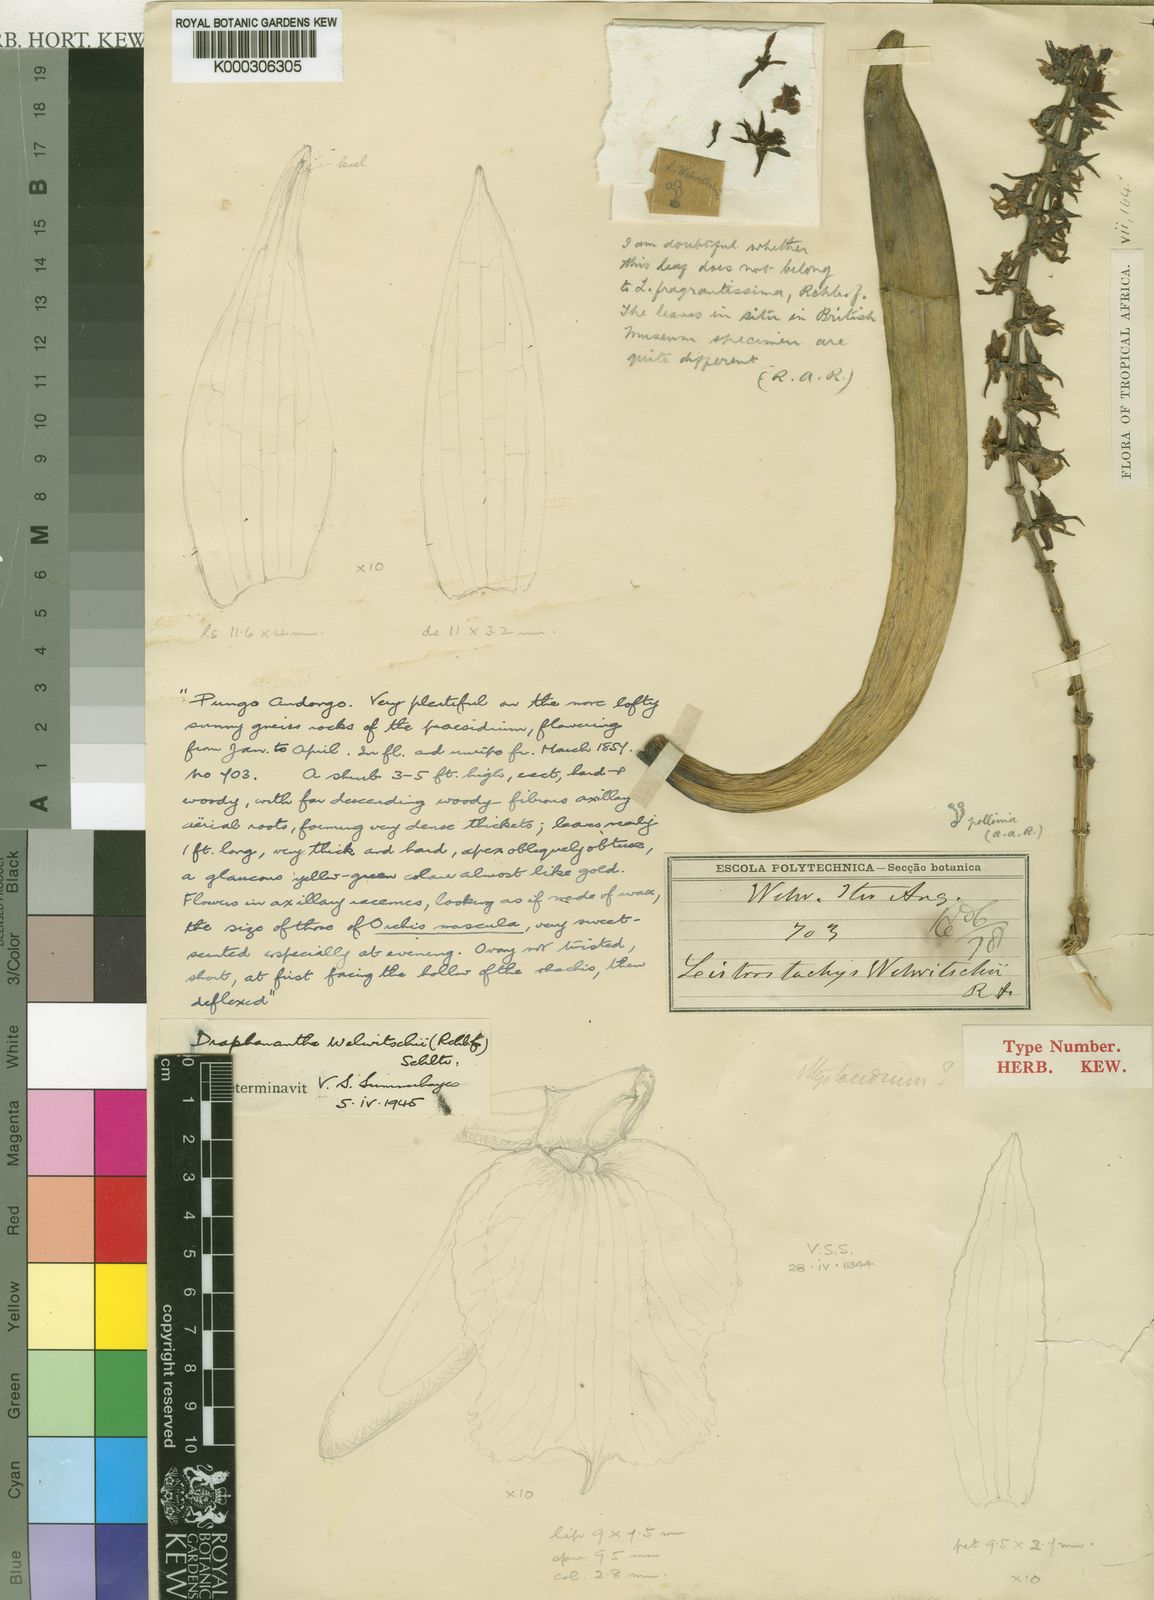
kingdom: Plantae
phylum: Tracheophyta
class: Liliopsida
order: Asparagales
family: Orchidaceae
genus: Diaphananthe
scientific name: Diaphananthe welwitschii
